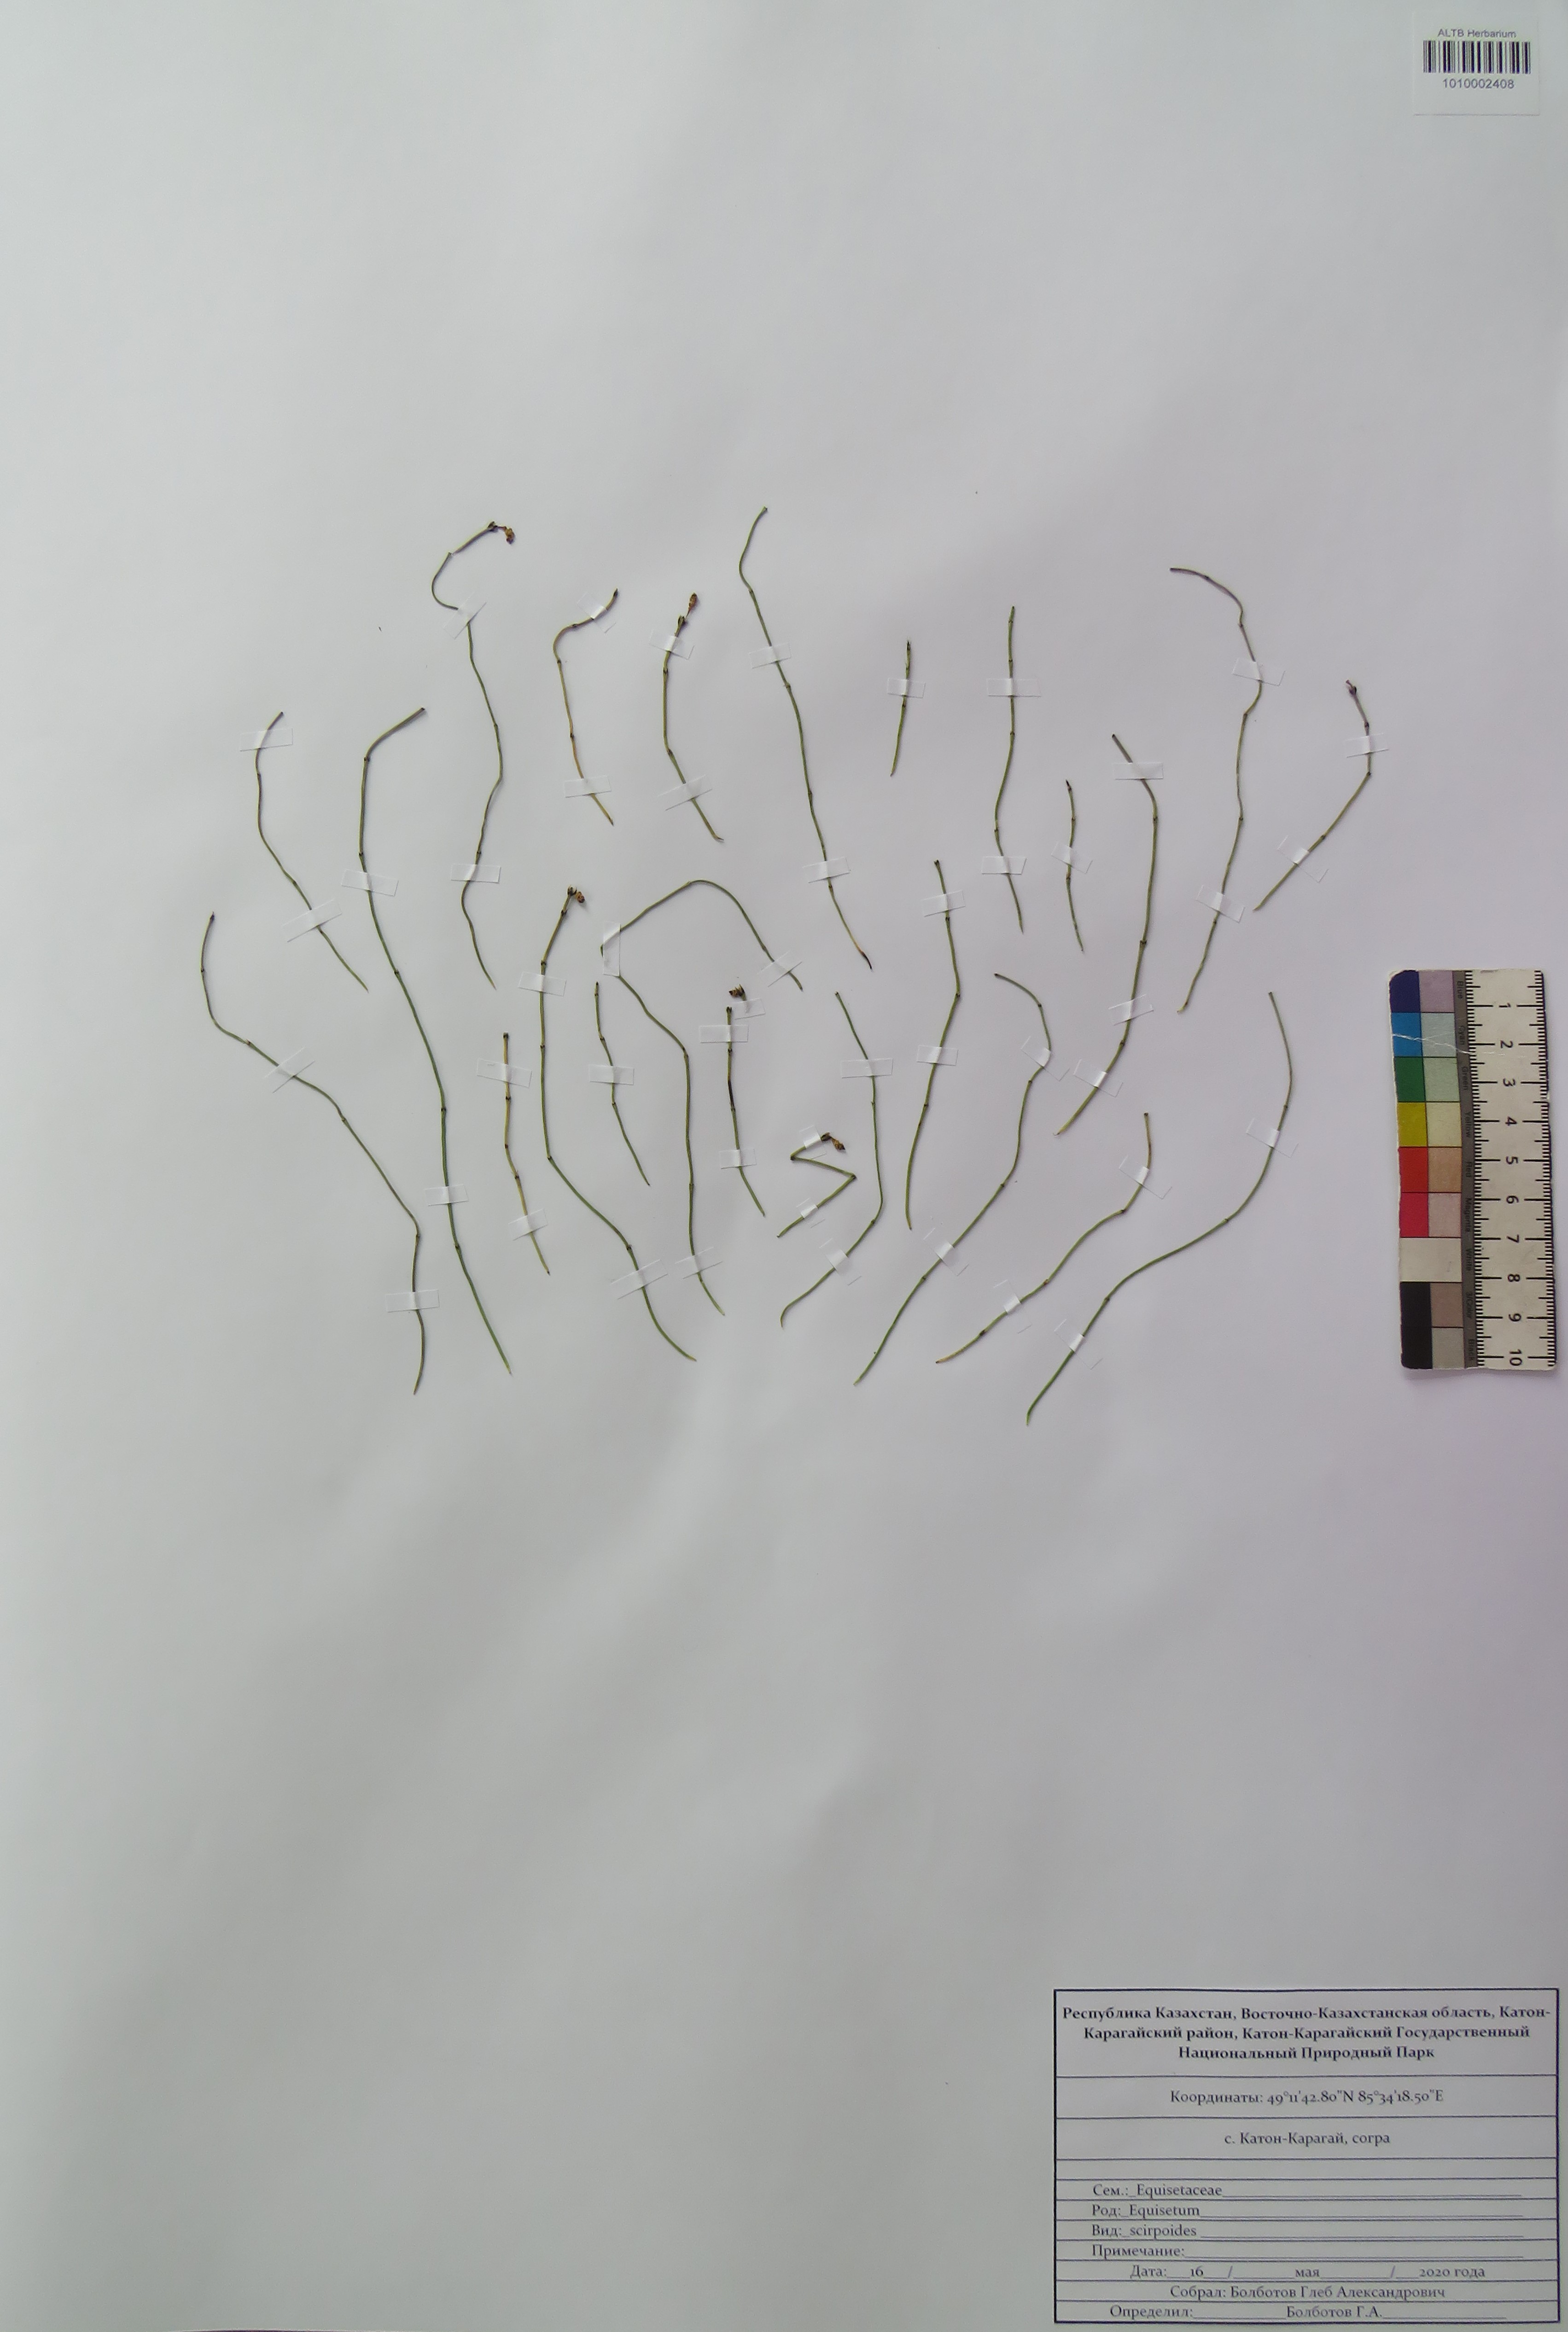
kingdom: Plantae
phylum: Tracheophyta
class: Polypodiopsida
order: Equisetales
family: Equisetaceae
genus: Equisetum
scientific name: Equisetum scirpoides
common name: Delicate horsetail
